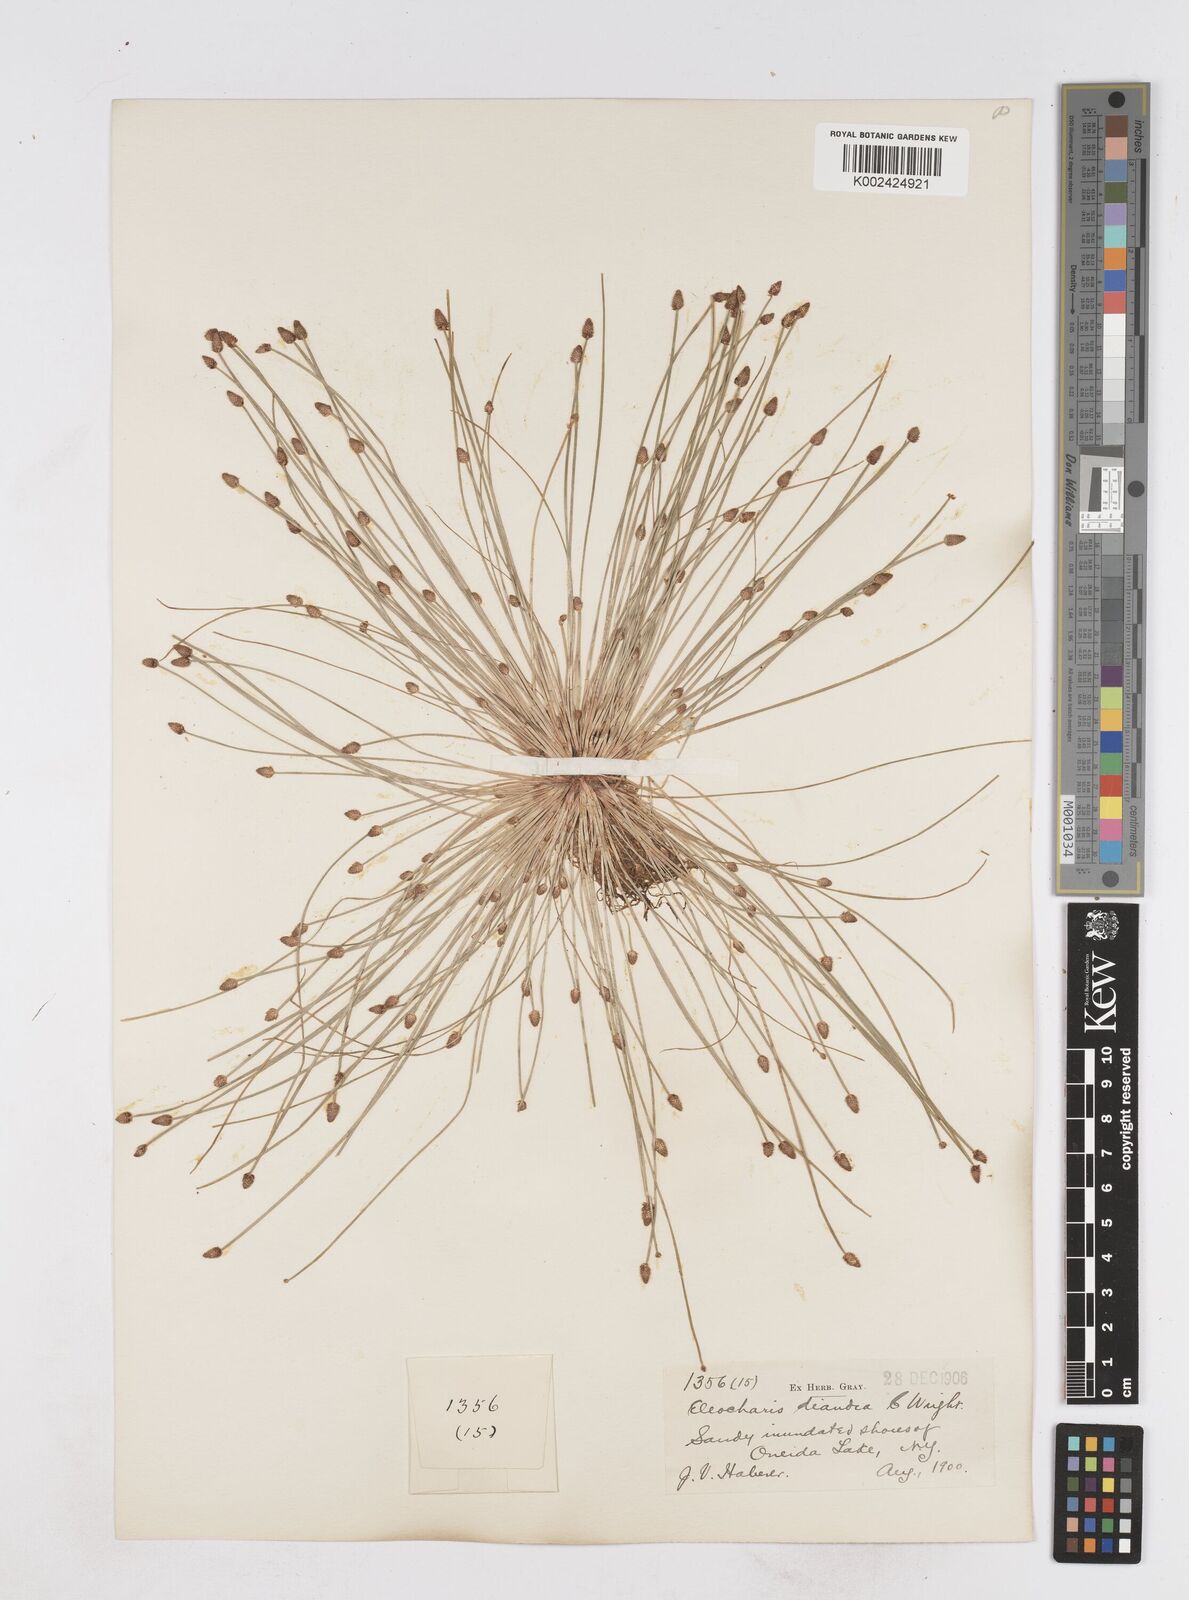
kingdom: Plantae
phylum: Tracheophyta
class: Liliopsida
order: Poales
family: Cyperaceae
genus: Eleocharis
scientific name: Eleocharis ovata
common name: Oval spike-rush
